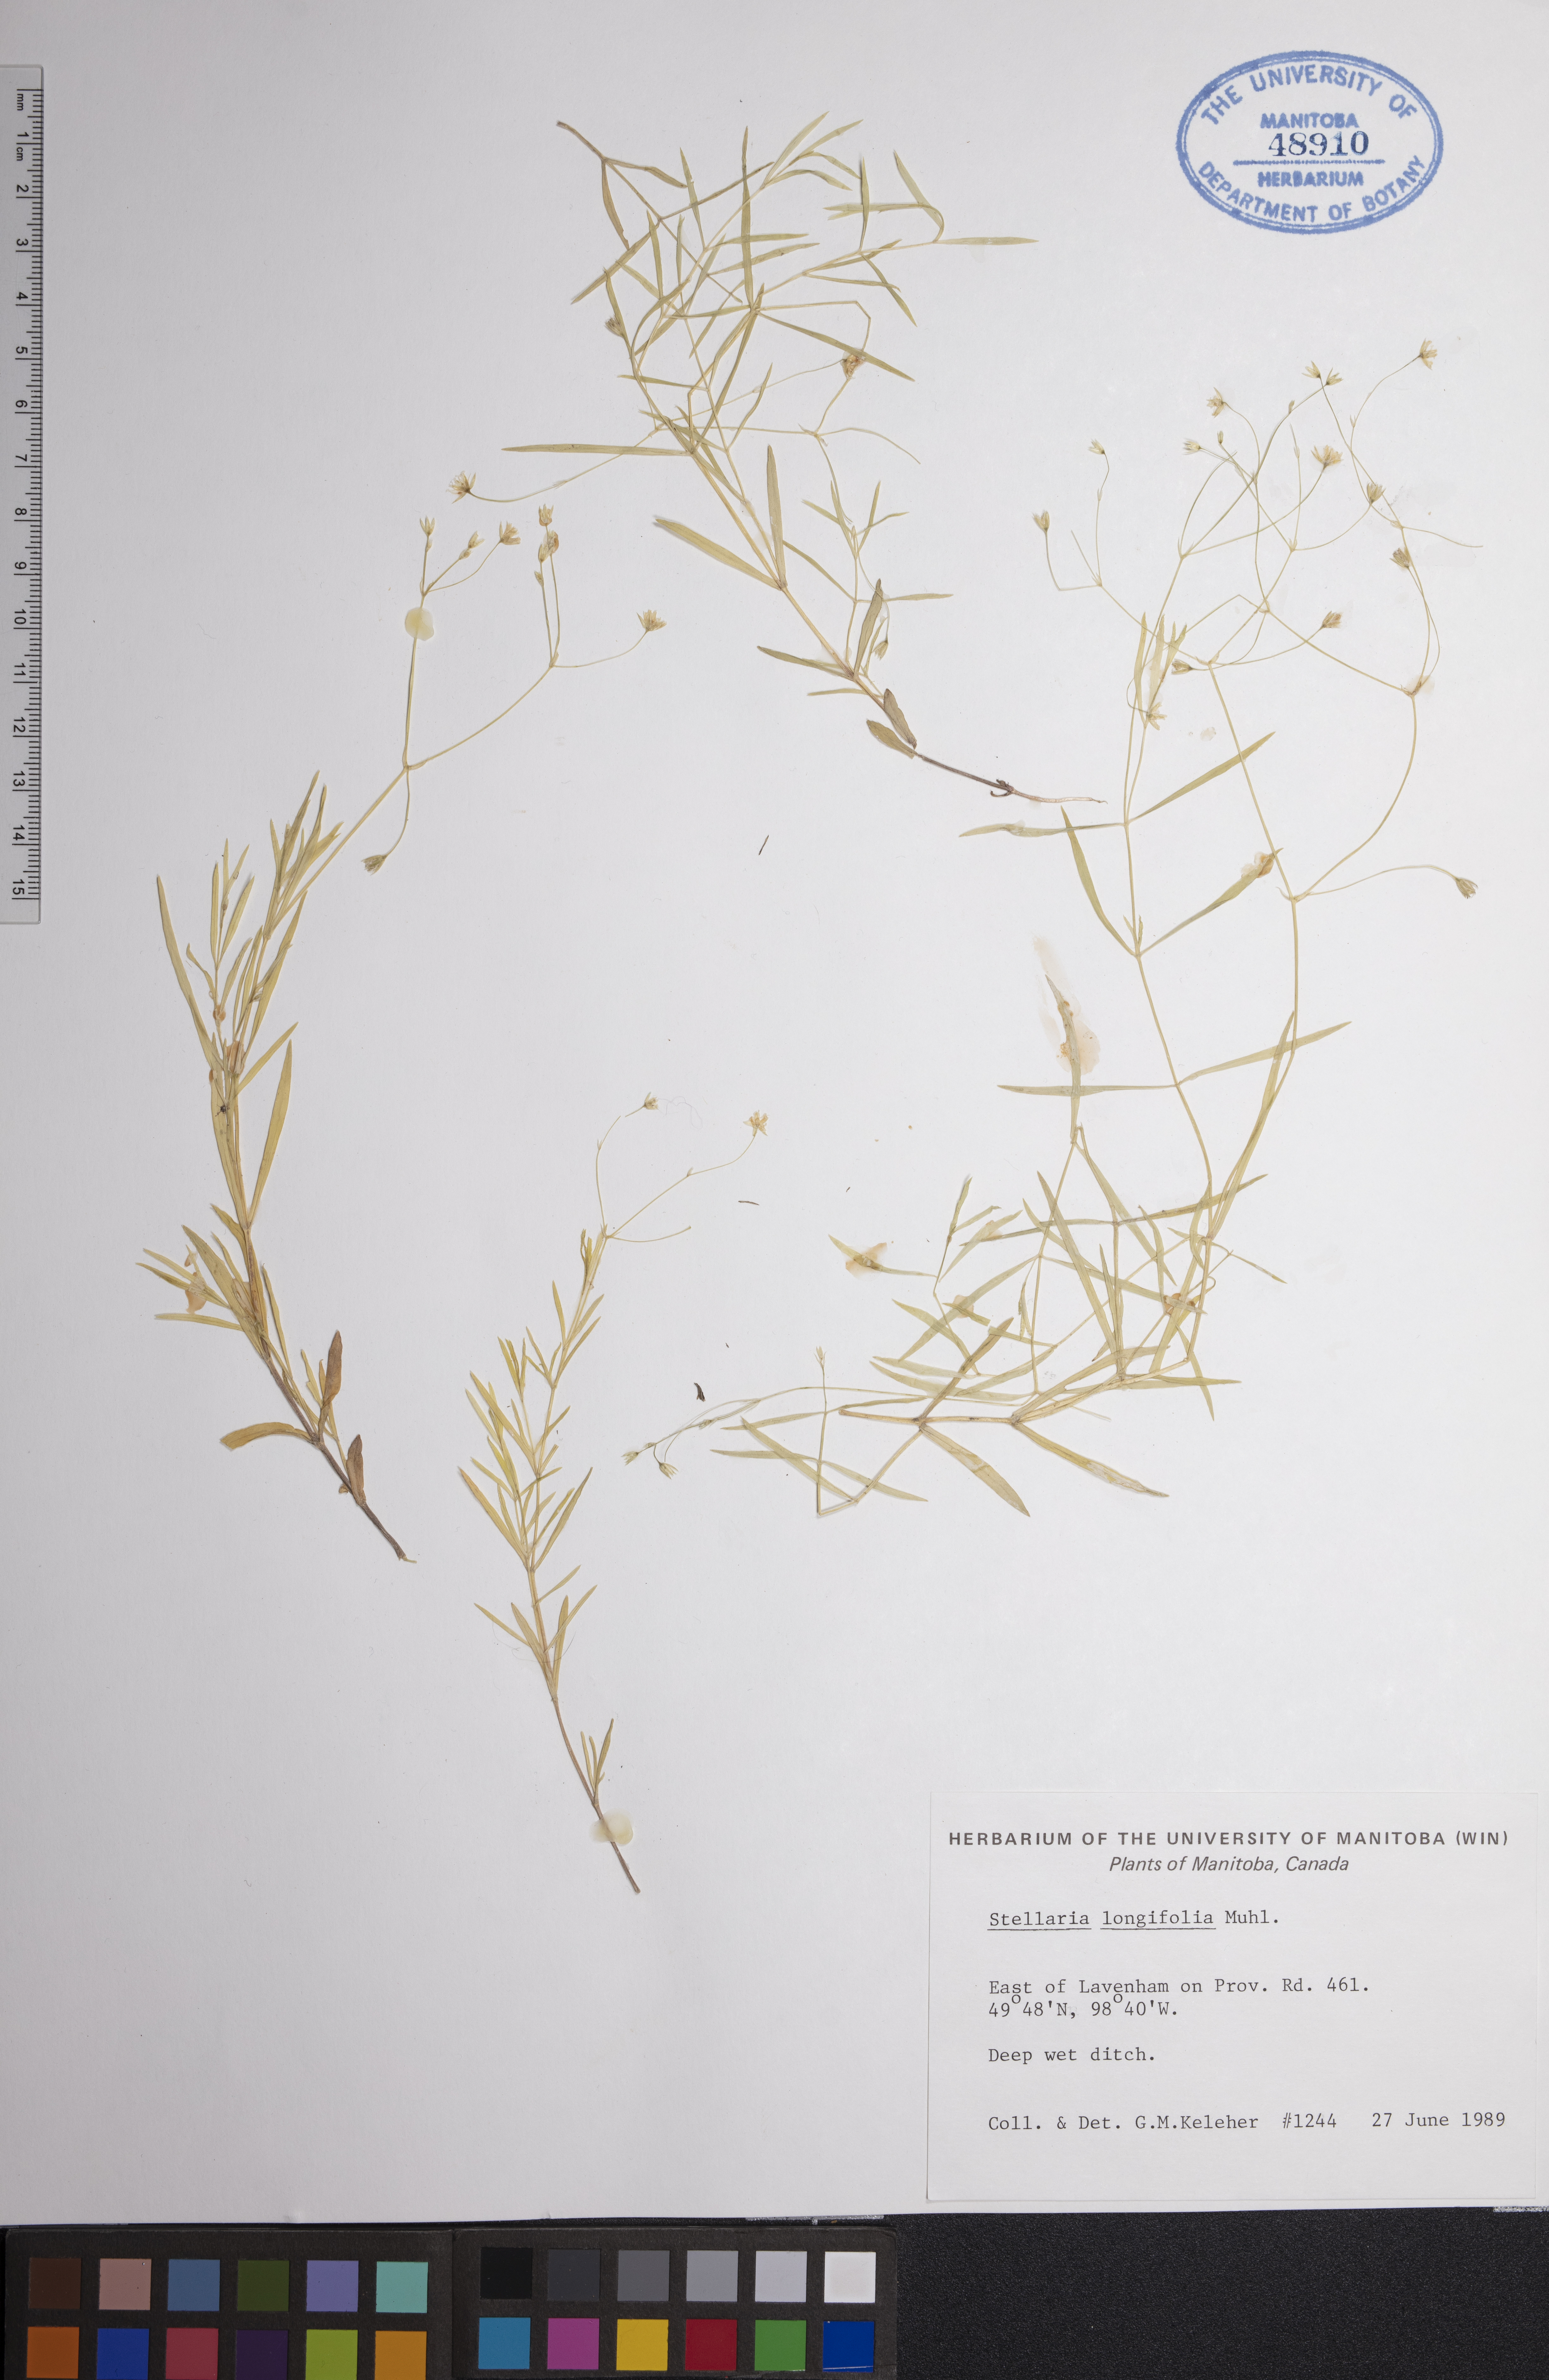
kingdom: Plantae
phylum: Tracheophyta
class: Magnoliopsida
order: Caryophyllales
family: Caryophyllaceae
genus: Stellaria
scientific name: Stellaria longifolia
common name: Long-leaved chickweed
